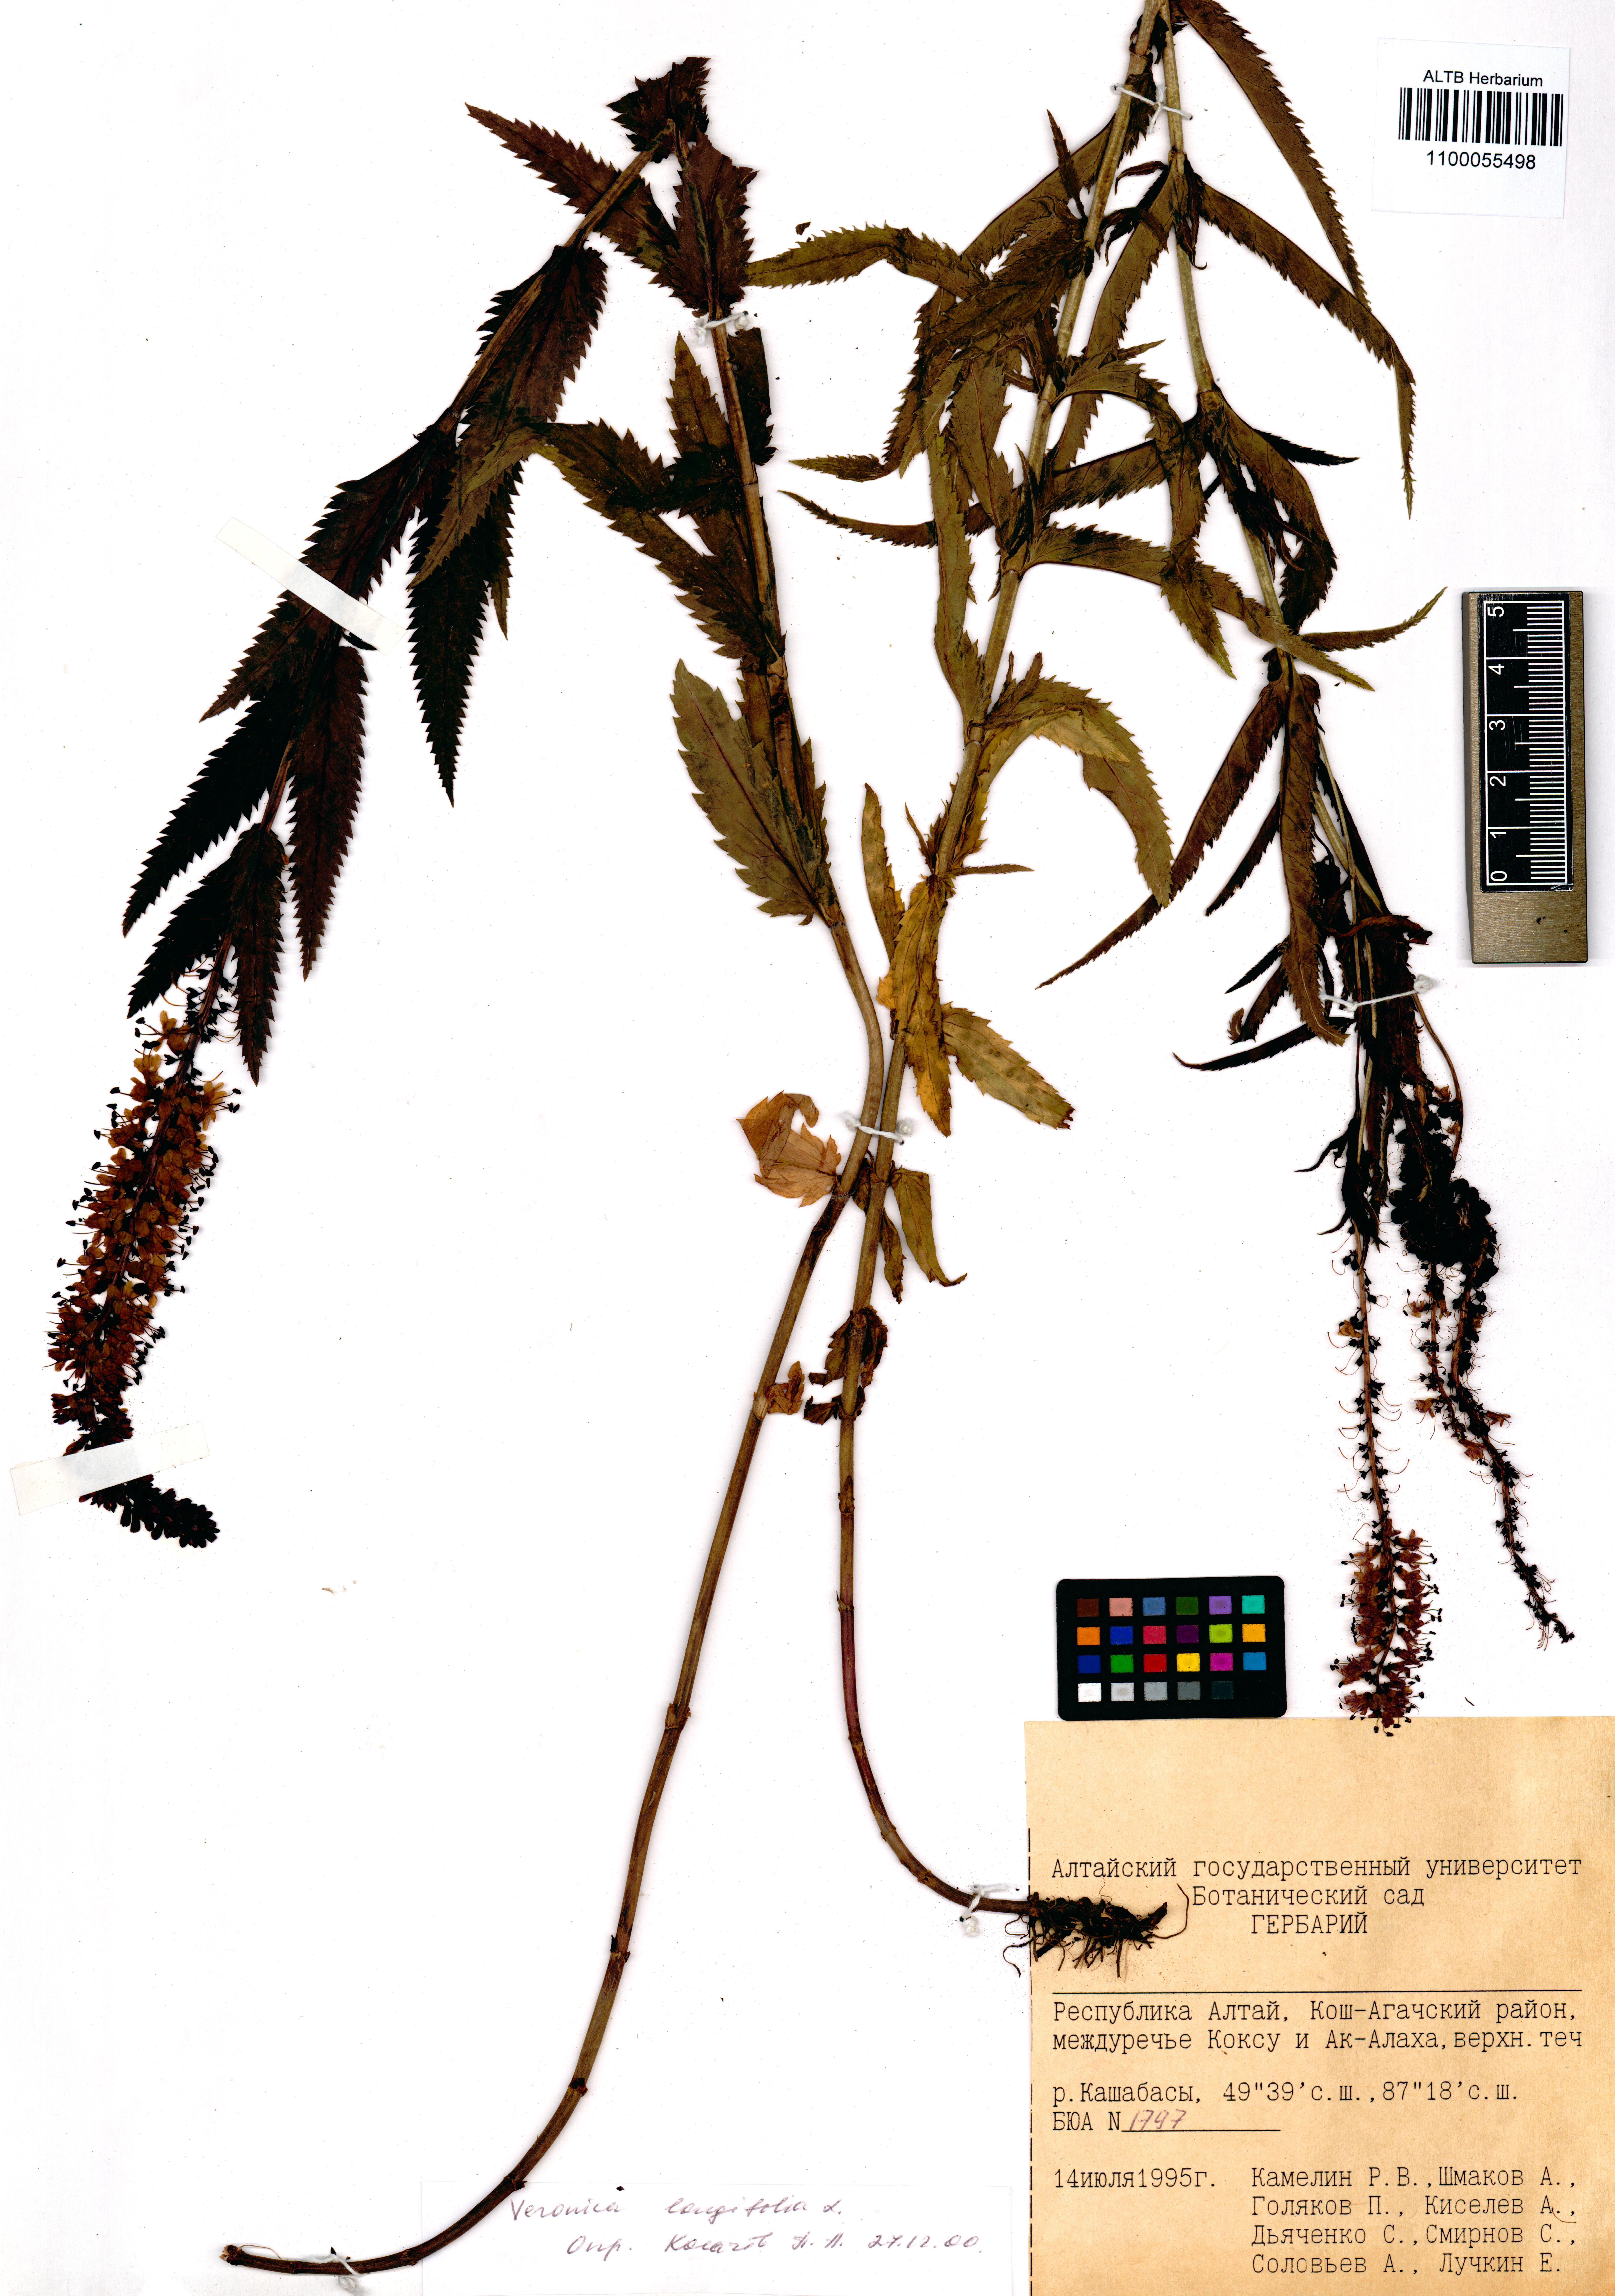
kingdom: Plantae
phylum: Tracheophyta
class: Magnoliopsida
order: Lamiales
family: Plantaginaceae
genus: Veronica
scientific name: Veronica longifolia
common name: Garden speedwell
